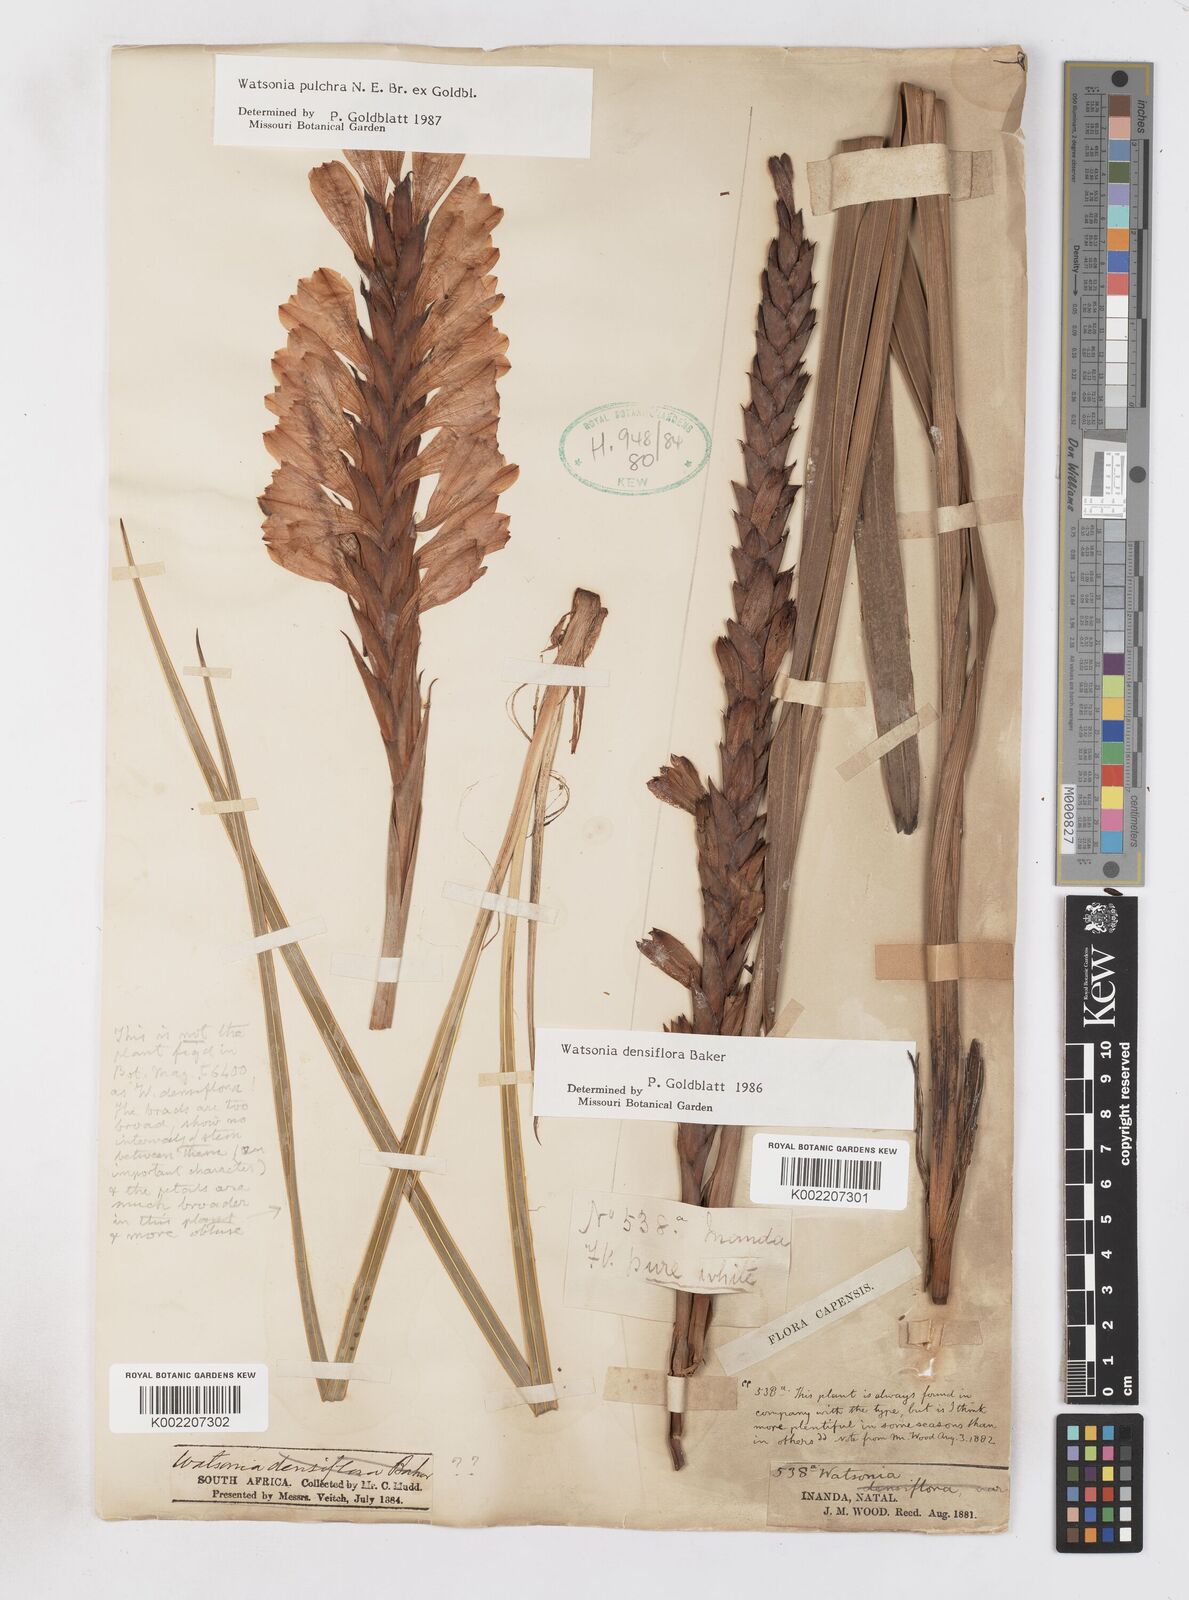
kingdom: Plantae
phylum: Tracheophyta
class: Liliopsida
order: Asparagales
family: Iridaceae
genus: Watsonia
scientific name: Watsonia densiflora
